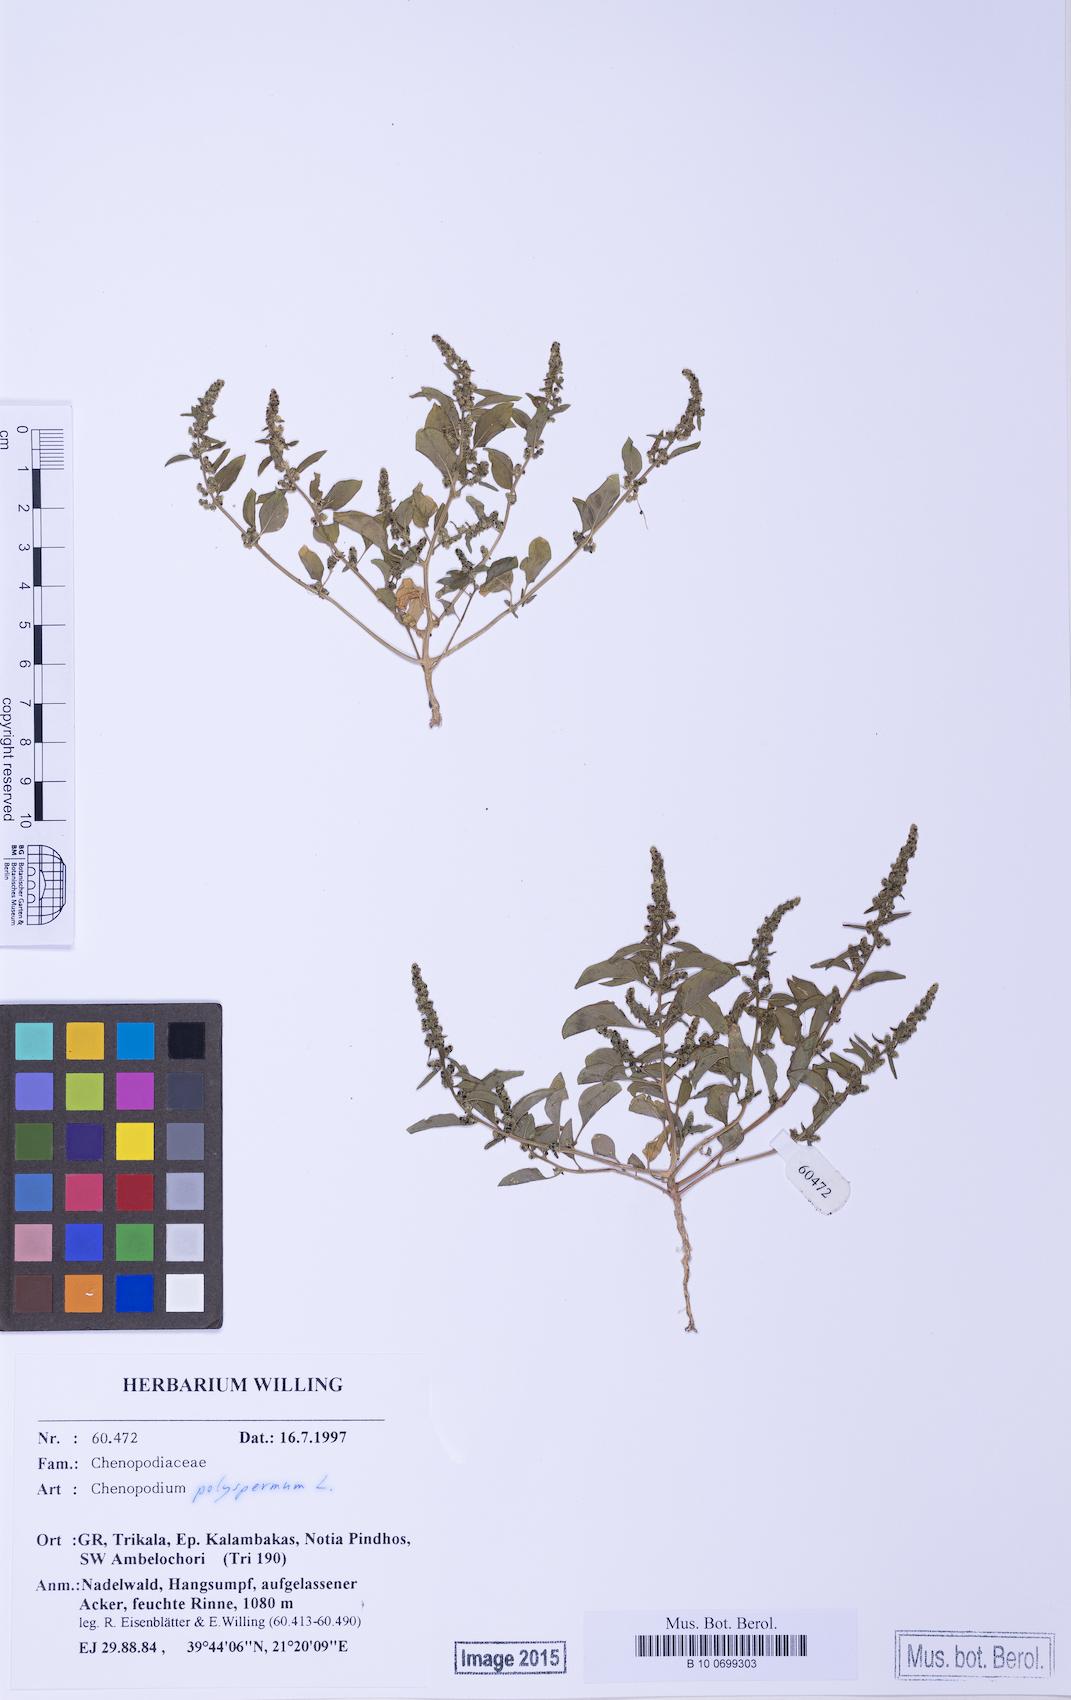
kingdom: Plantae
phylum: Tracheophyta
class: Magnoliopsida
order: Caryophyllales
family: Amaranthaceae
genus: Lipandra
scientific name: Lipandra polysperma
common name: Many-seed goosefoot
